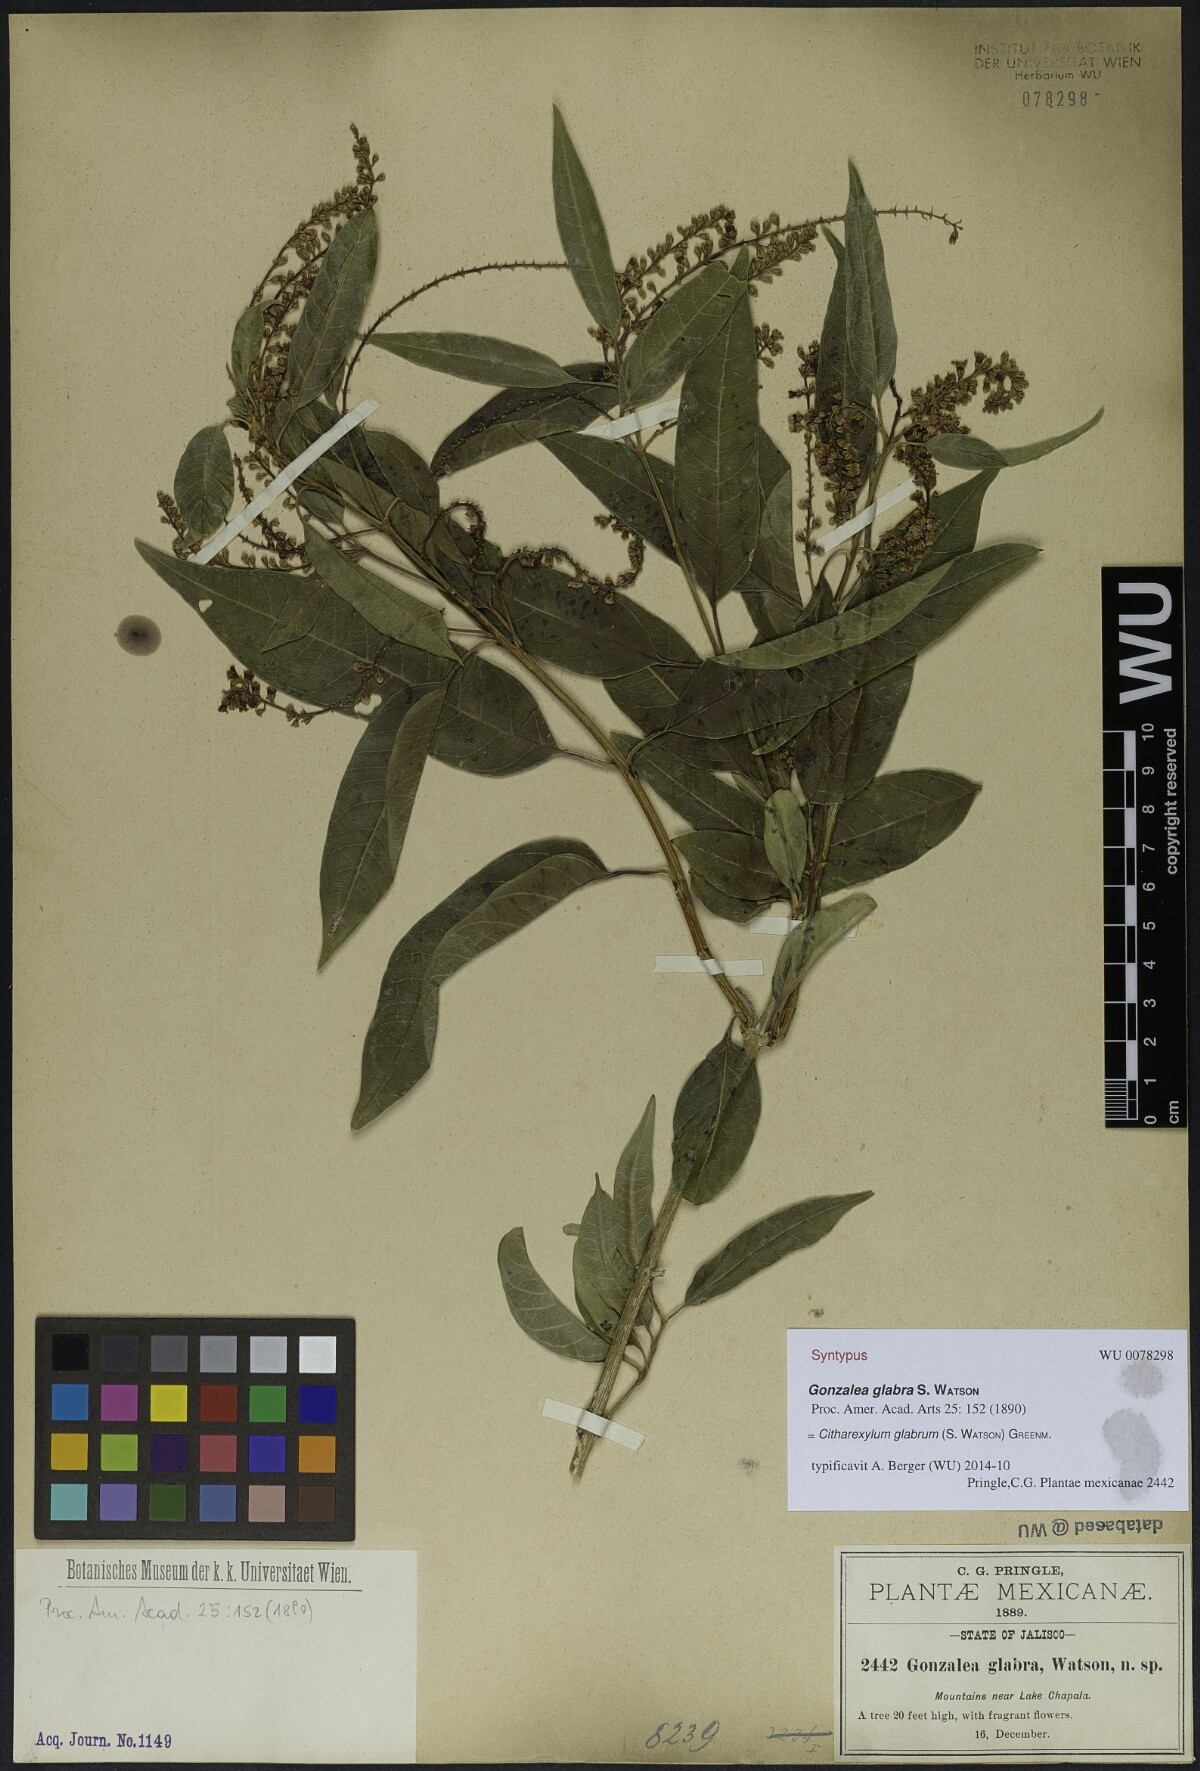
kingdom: Plantae
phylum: Tracheophyta
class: Magnoliopsida
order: Lamiales
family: Verbenaceae
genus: Citharexylum
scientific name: Citharexylum glabrum
